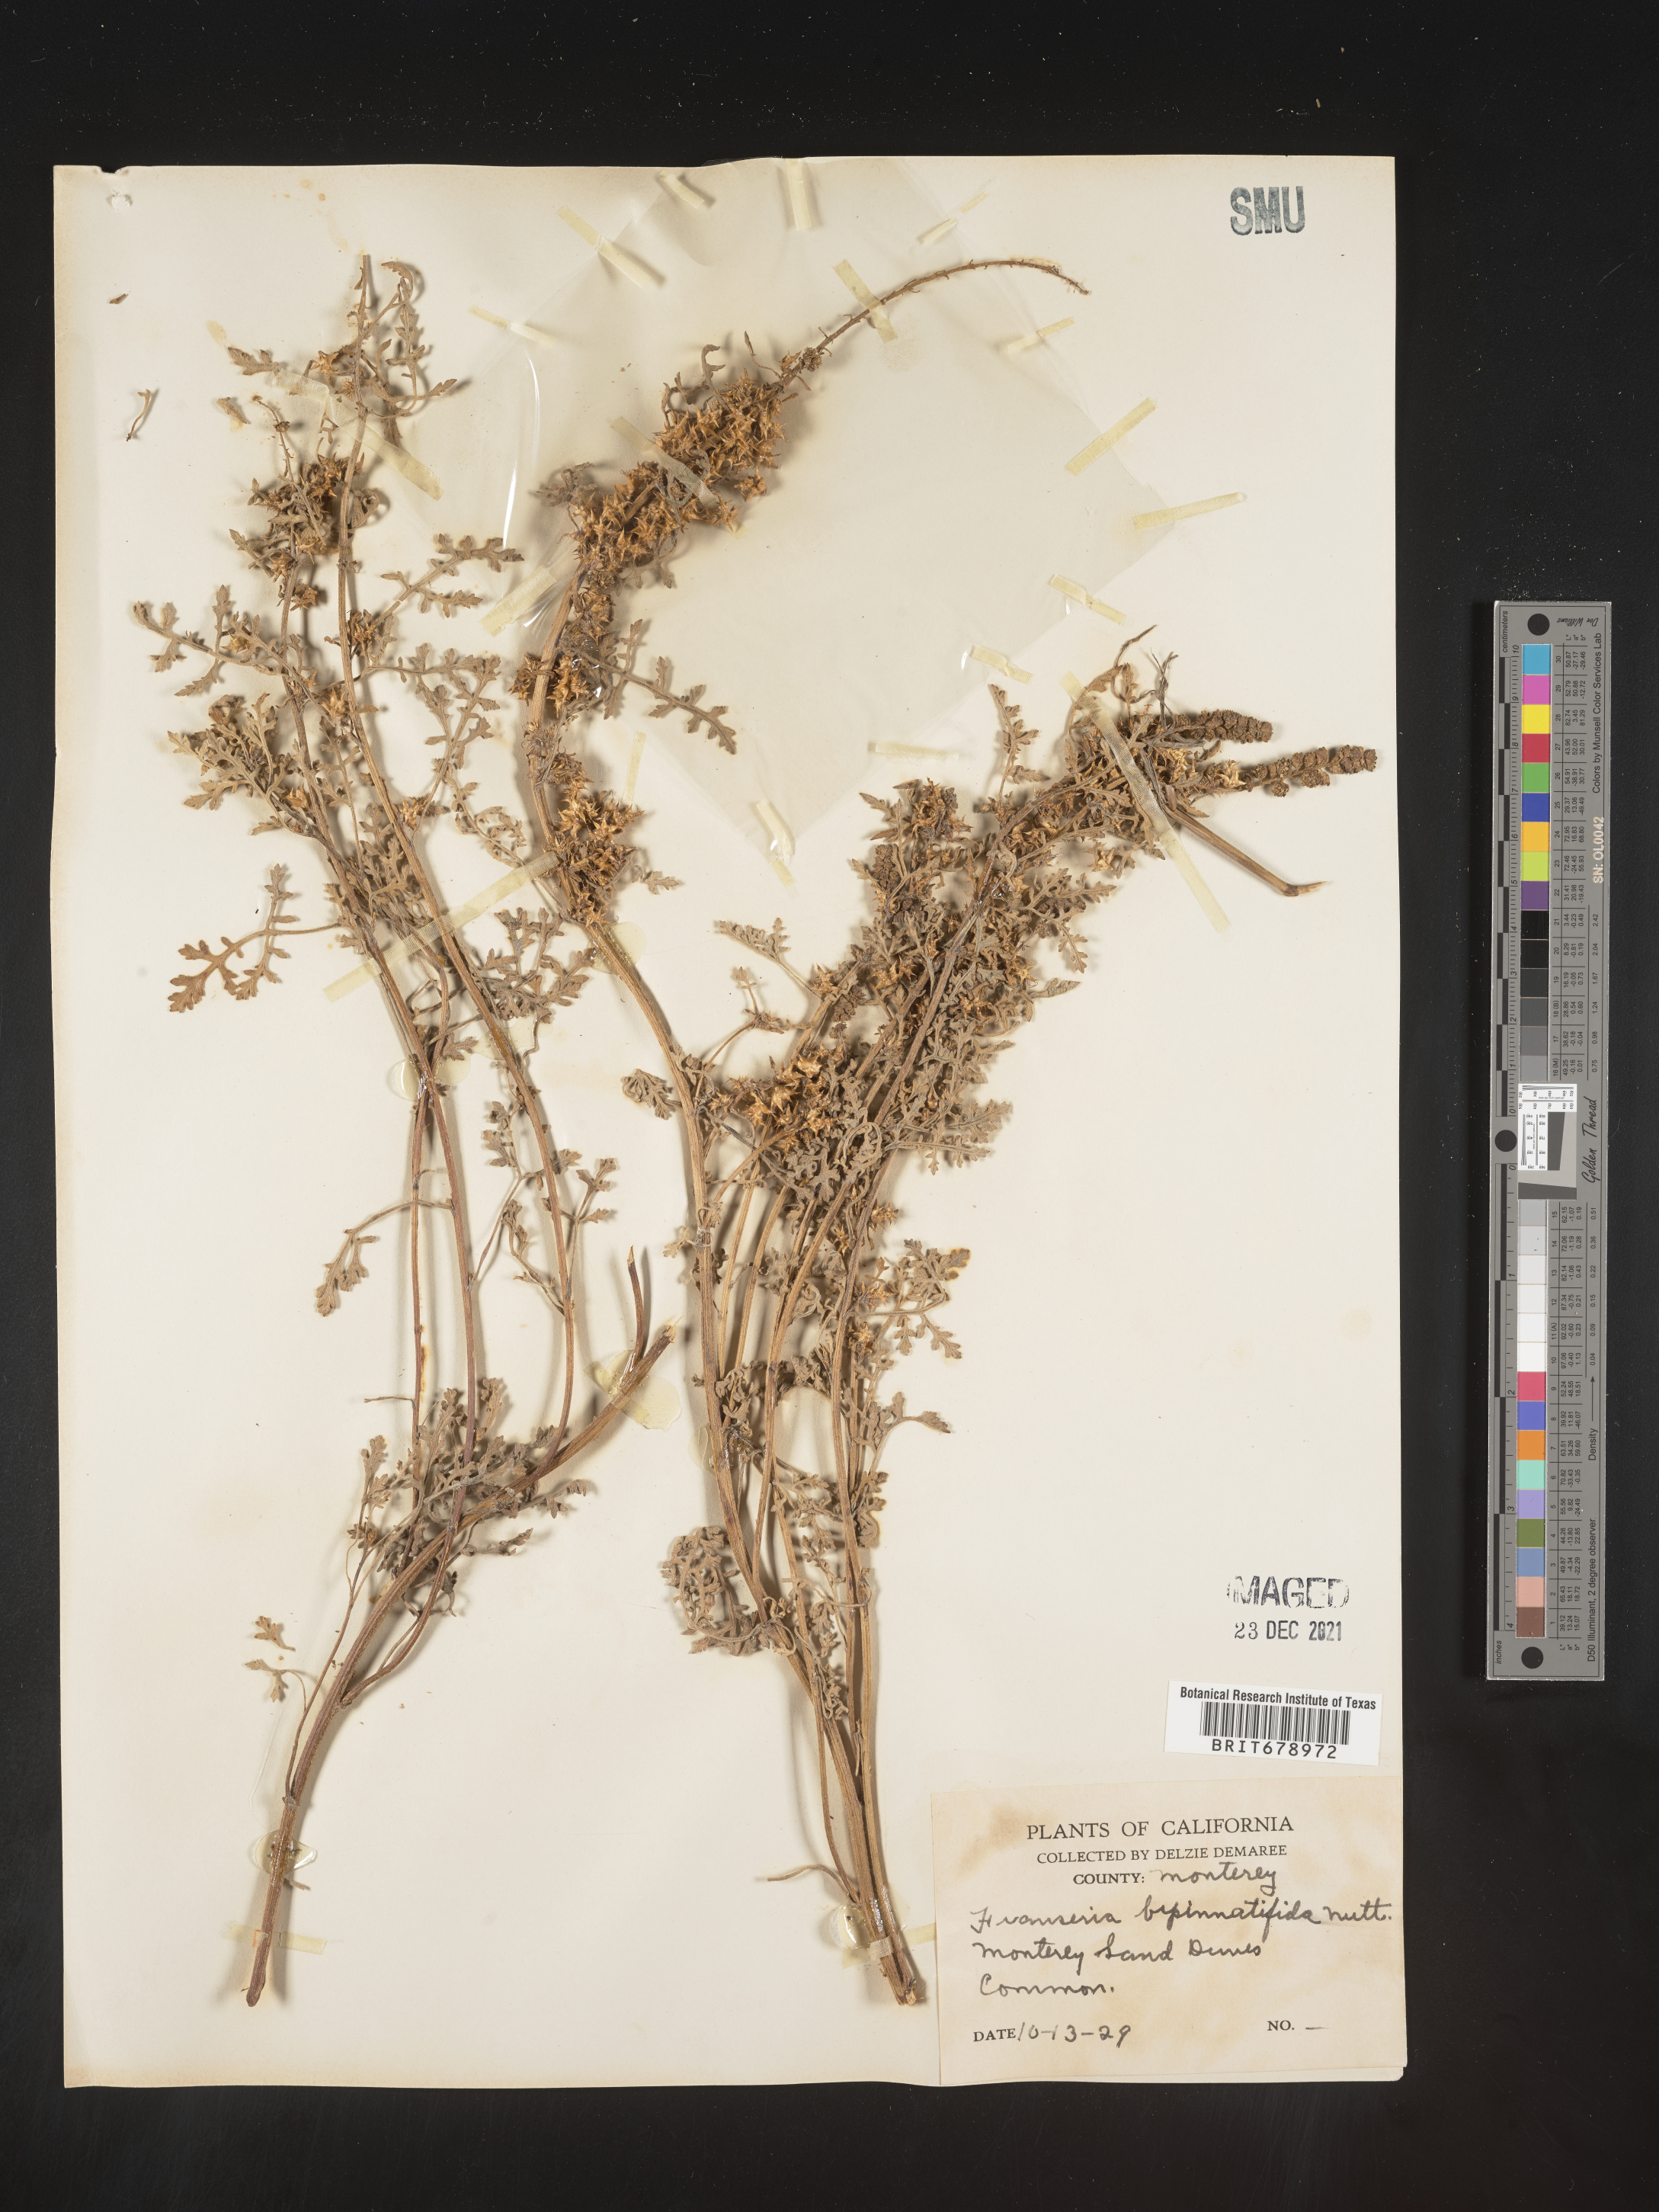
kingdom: Plantae
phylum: Tracheophyta
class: Magnoliopsida
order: Asterales
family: Asteraceae
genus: Ambrosia
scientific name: Ambrosia camphorata
